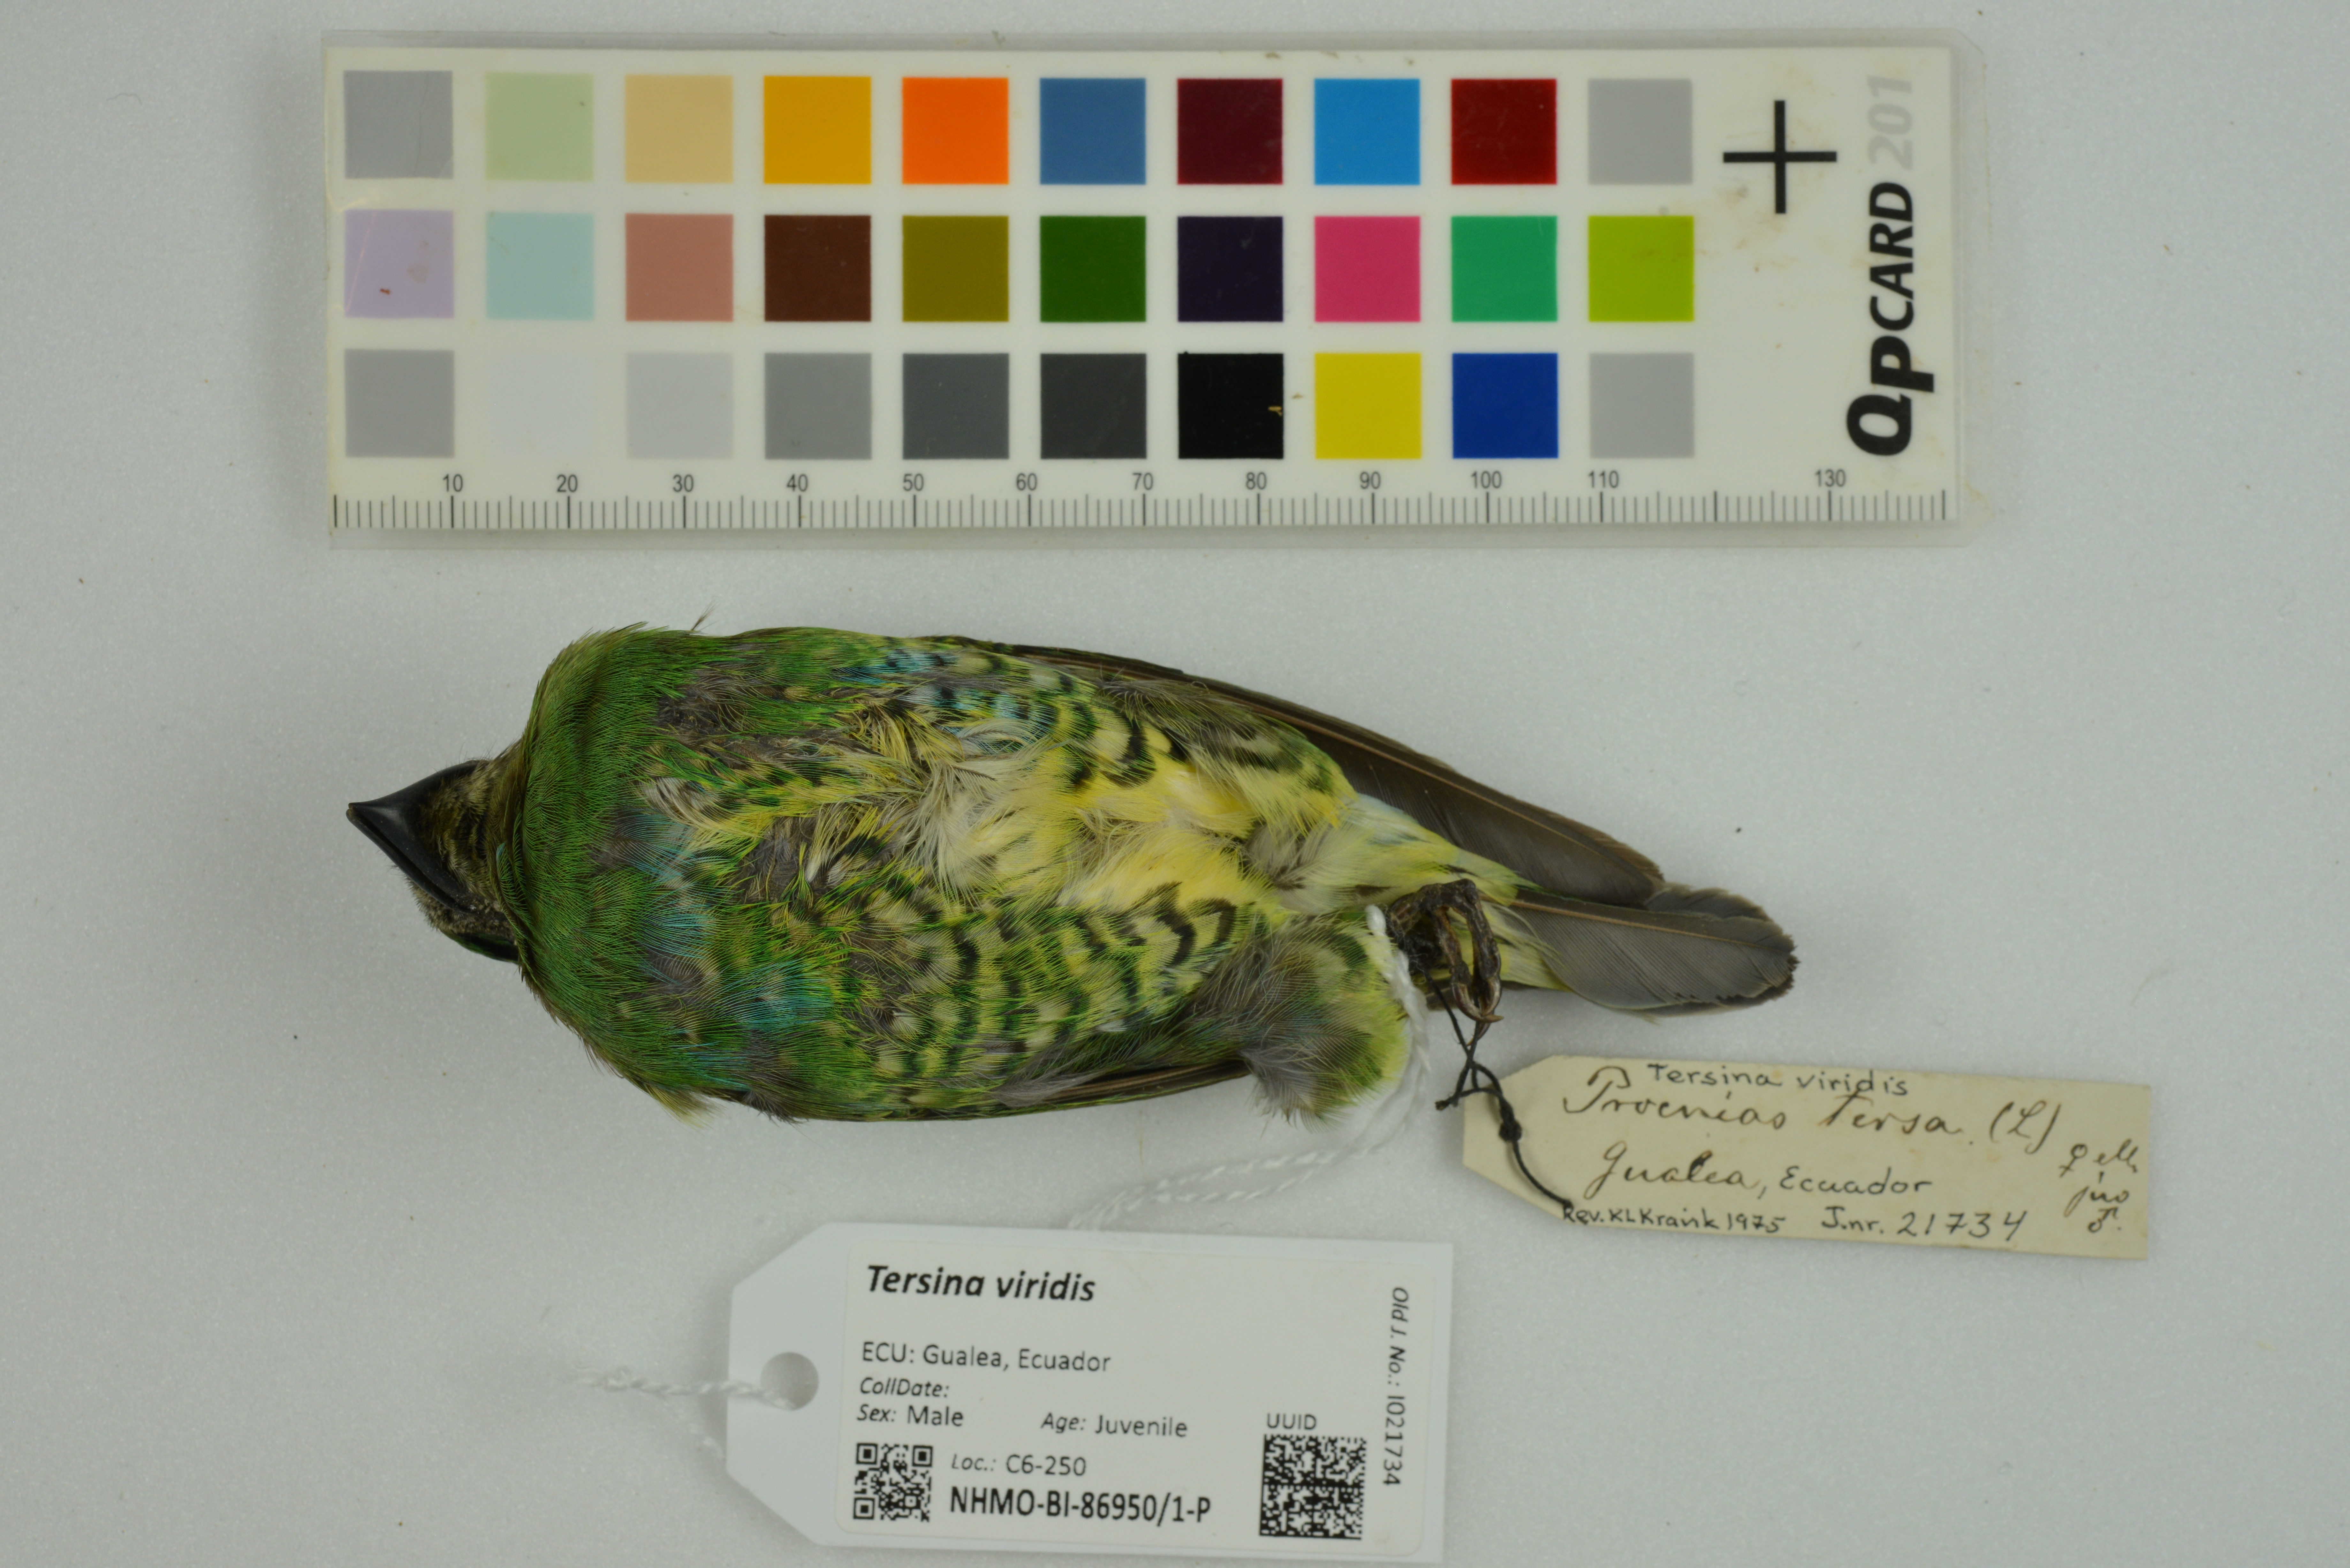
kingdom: Animalia
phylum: Chordata
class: Aves
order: Passeriformes
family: Thraupidae
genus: Tersina
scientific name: Tersina viridis
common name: Swallow tanager
